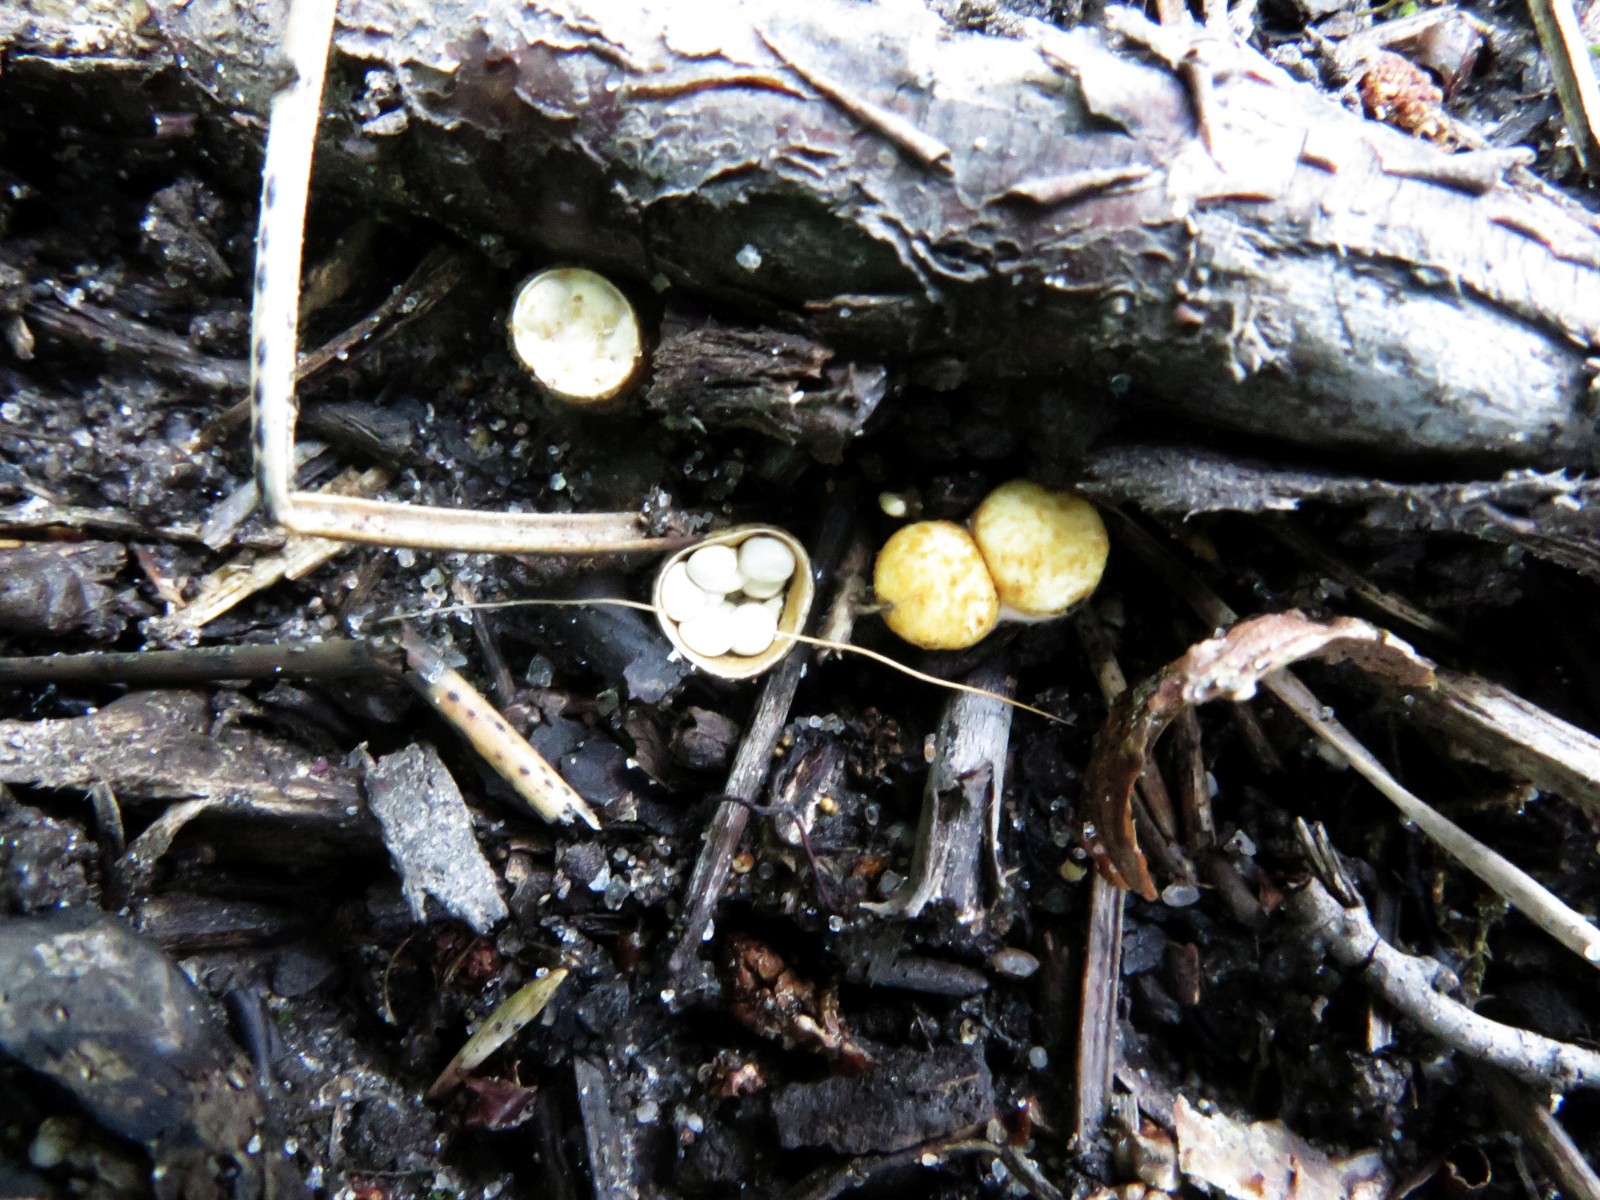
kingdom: Fungi
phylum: Basidiomycota
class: Agaricomycetes
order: Agaricales
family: Nidulariaceae
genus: Crucibulum
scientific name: Crucibulum crucibuliforme
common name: krukkesvamp
